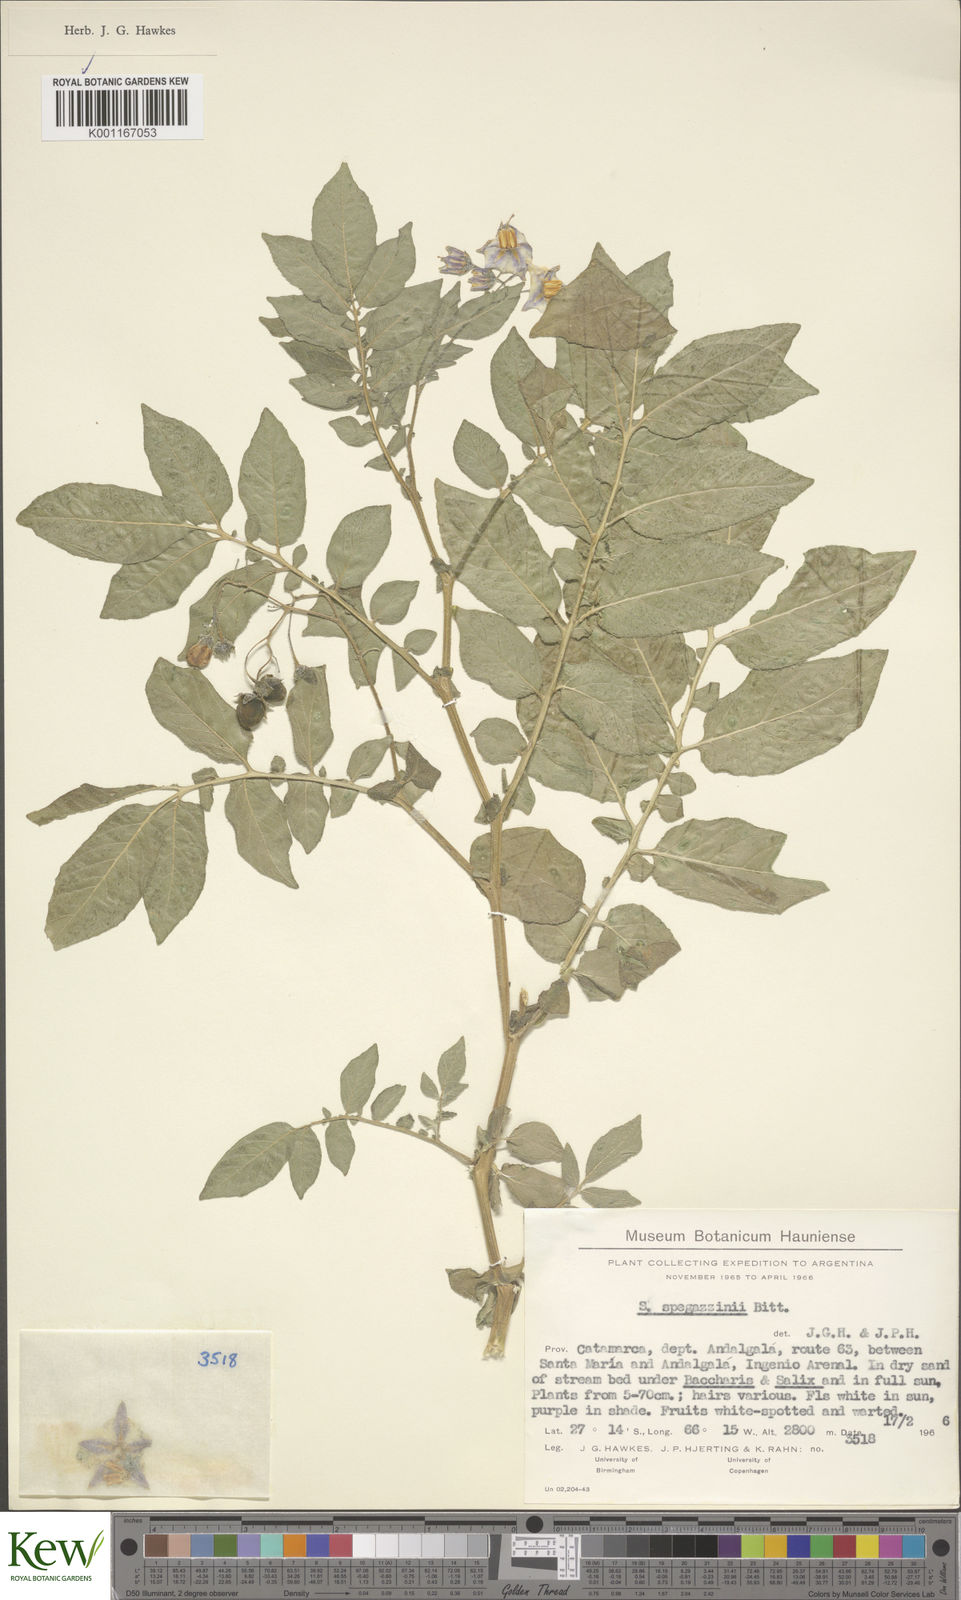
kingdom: Plantae
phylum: Tracheophyta
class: Magnoliopsida
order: Solanales
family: Solanaceae
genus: Solanum
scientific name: Solanum brevicaule
